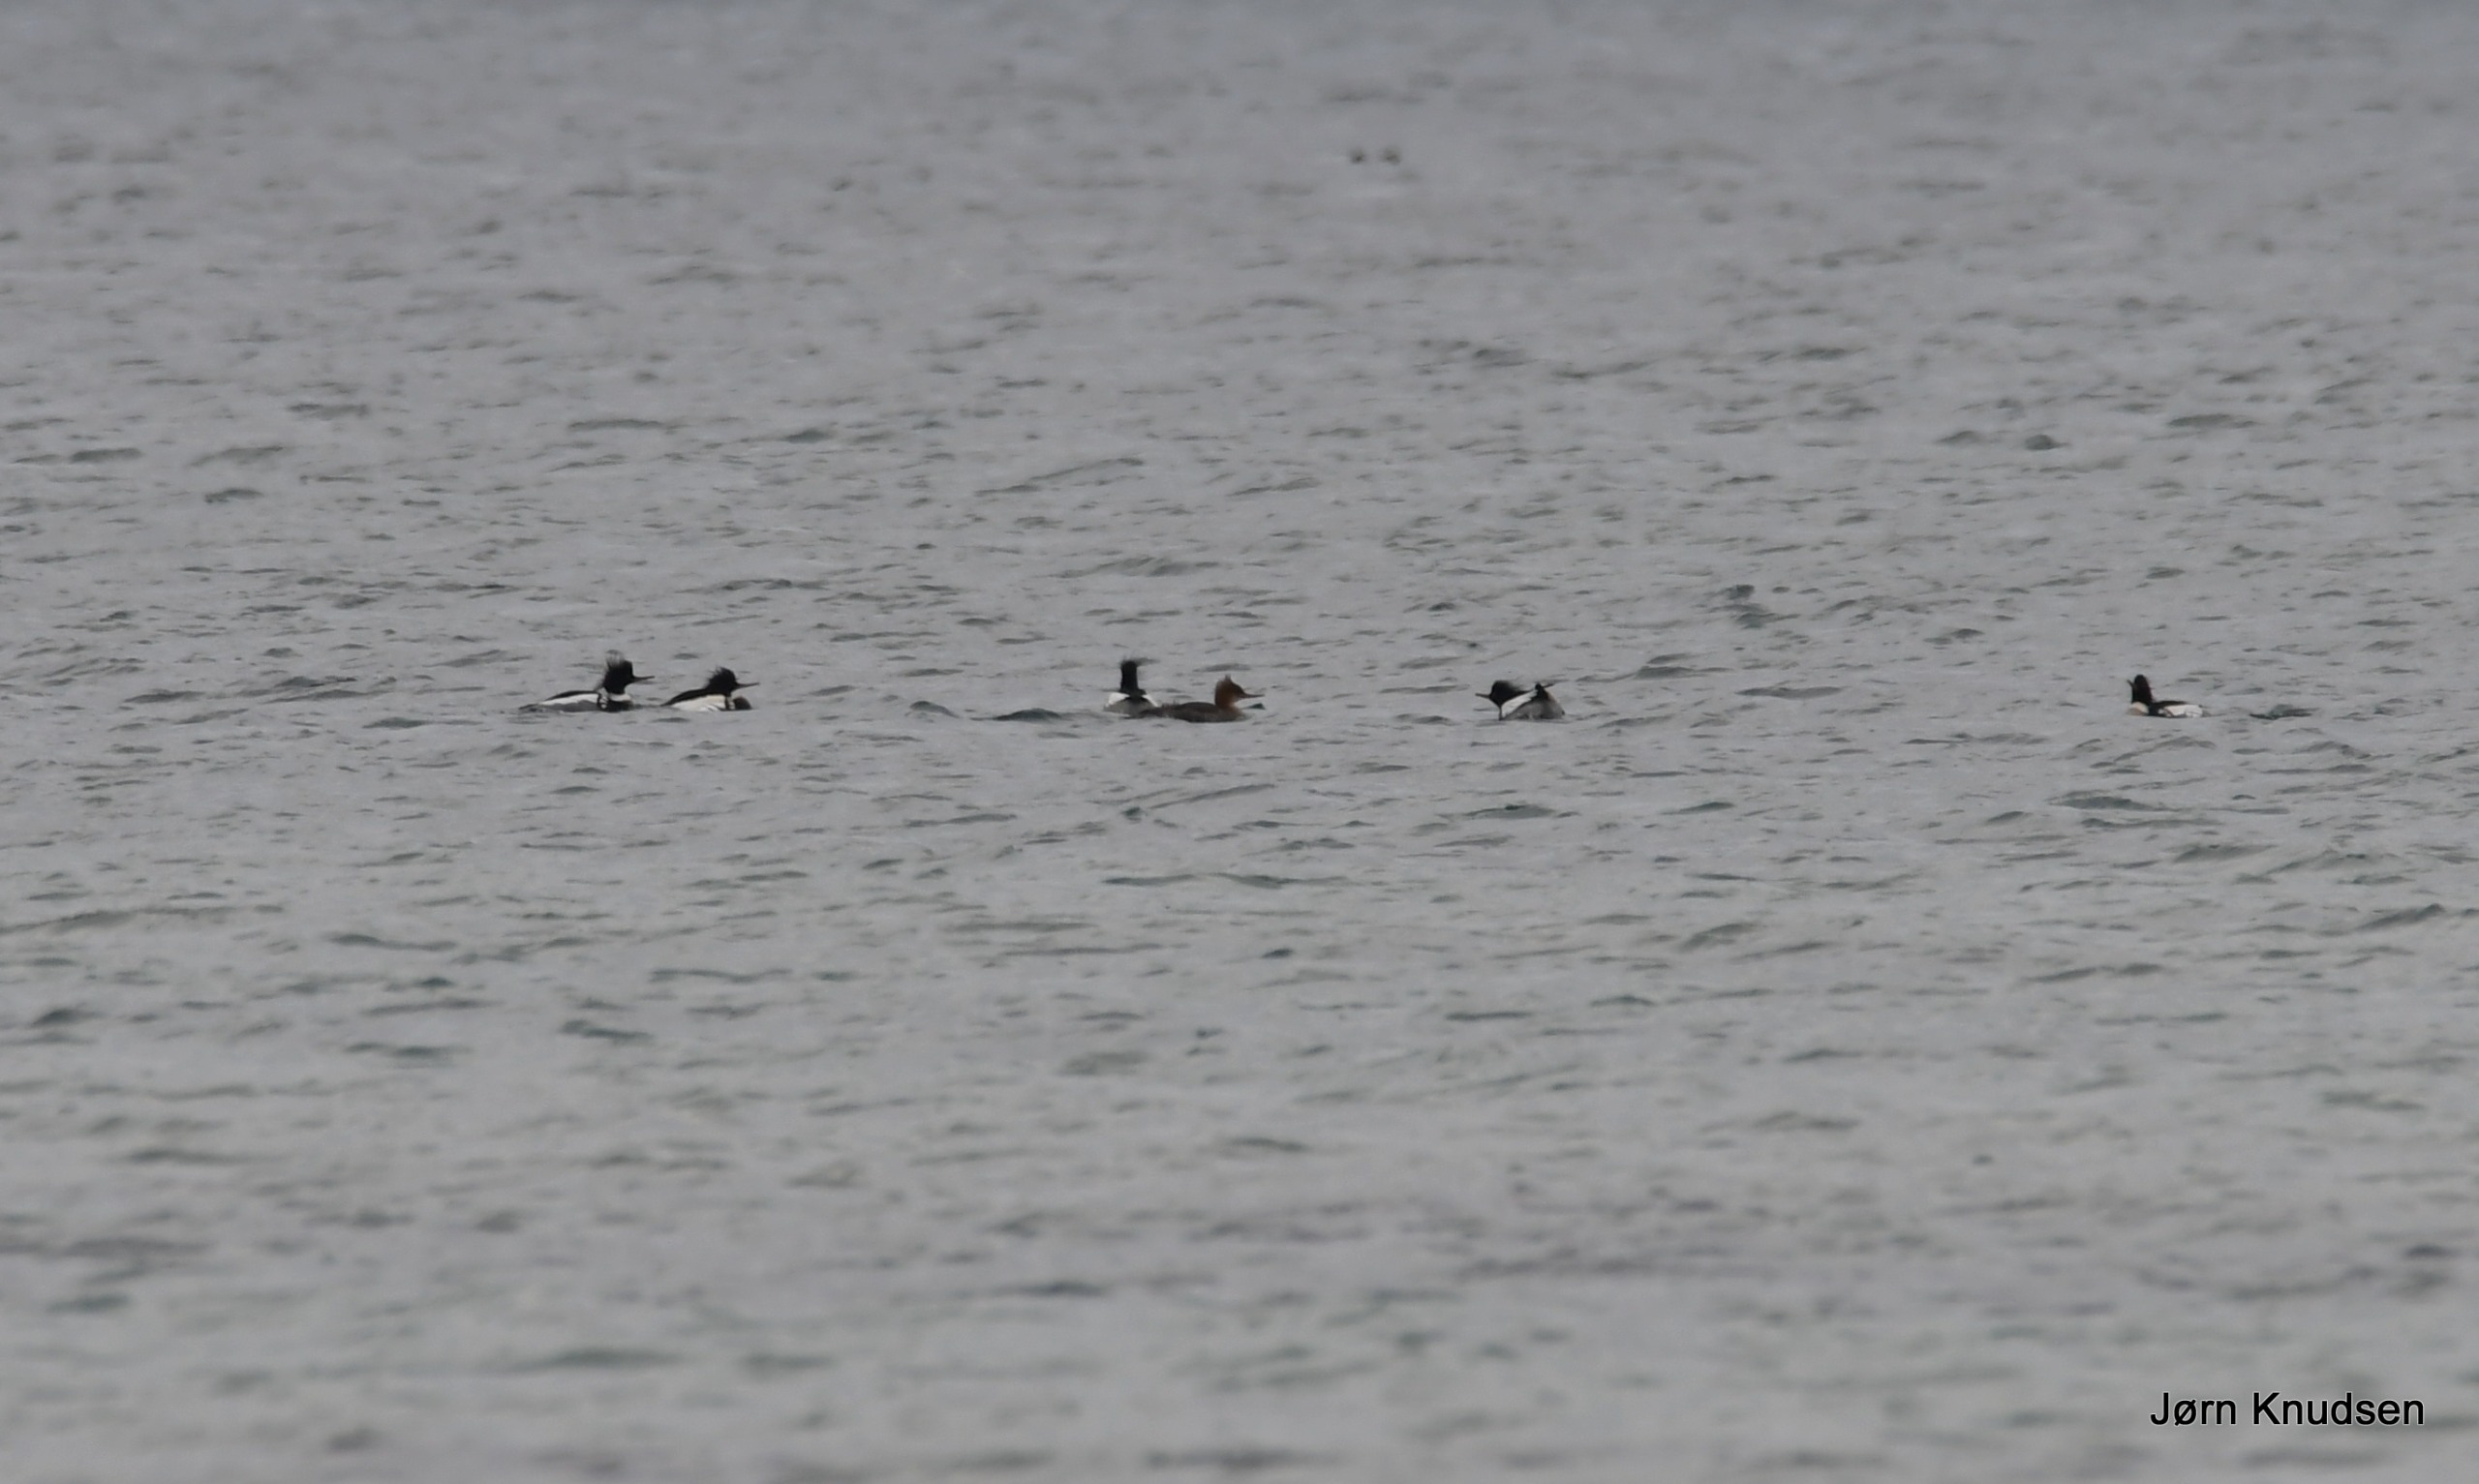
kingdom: Animalia
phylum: Chordata
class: Aves
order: Anseriformes
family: Anatidae
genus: Mergus
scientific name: Mergus serrator
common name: Toppet skallesluger
